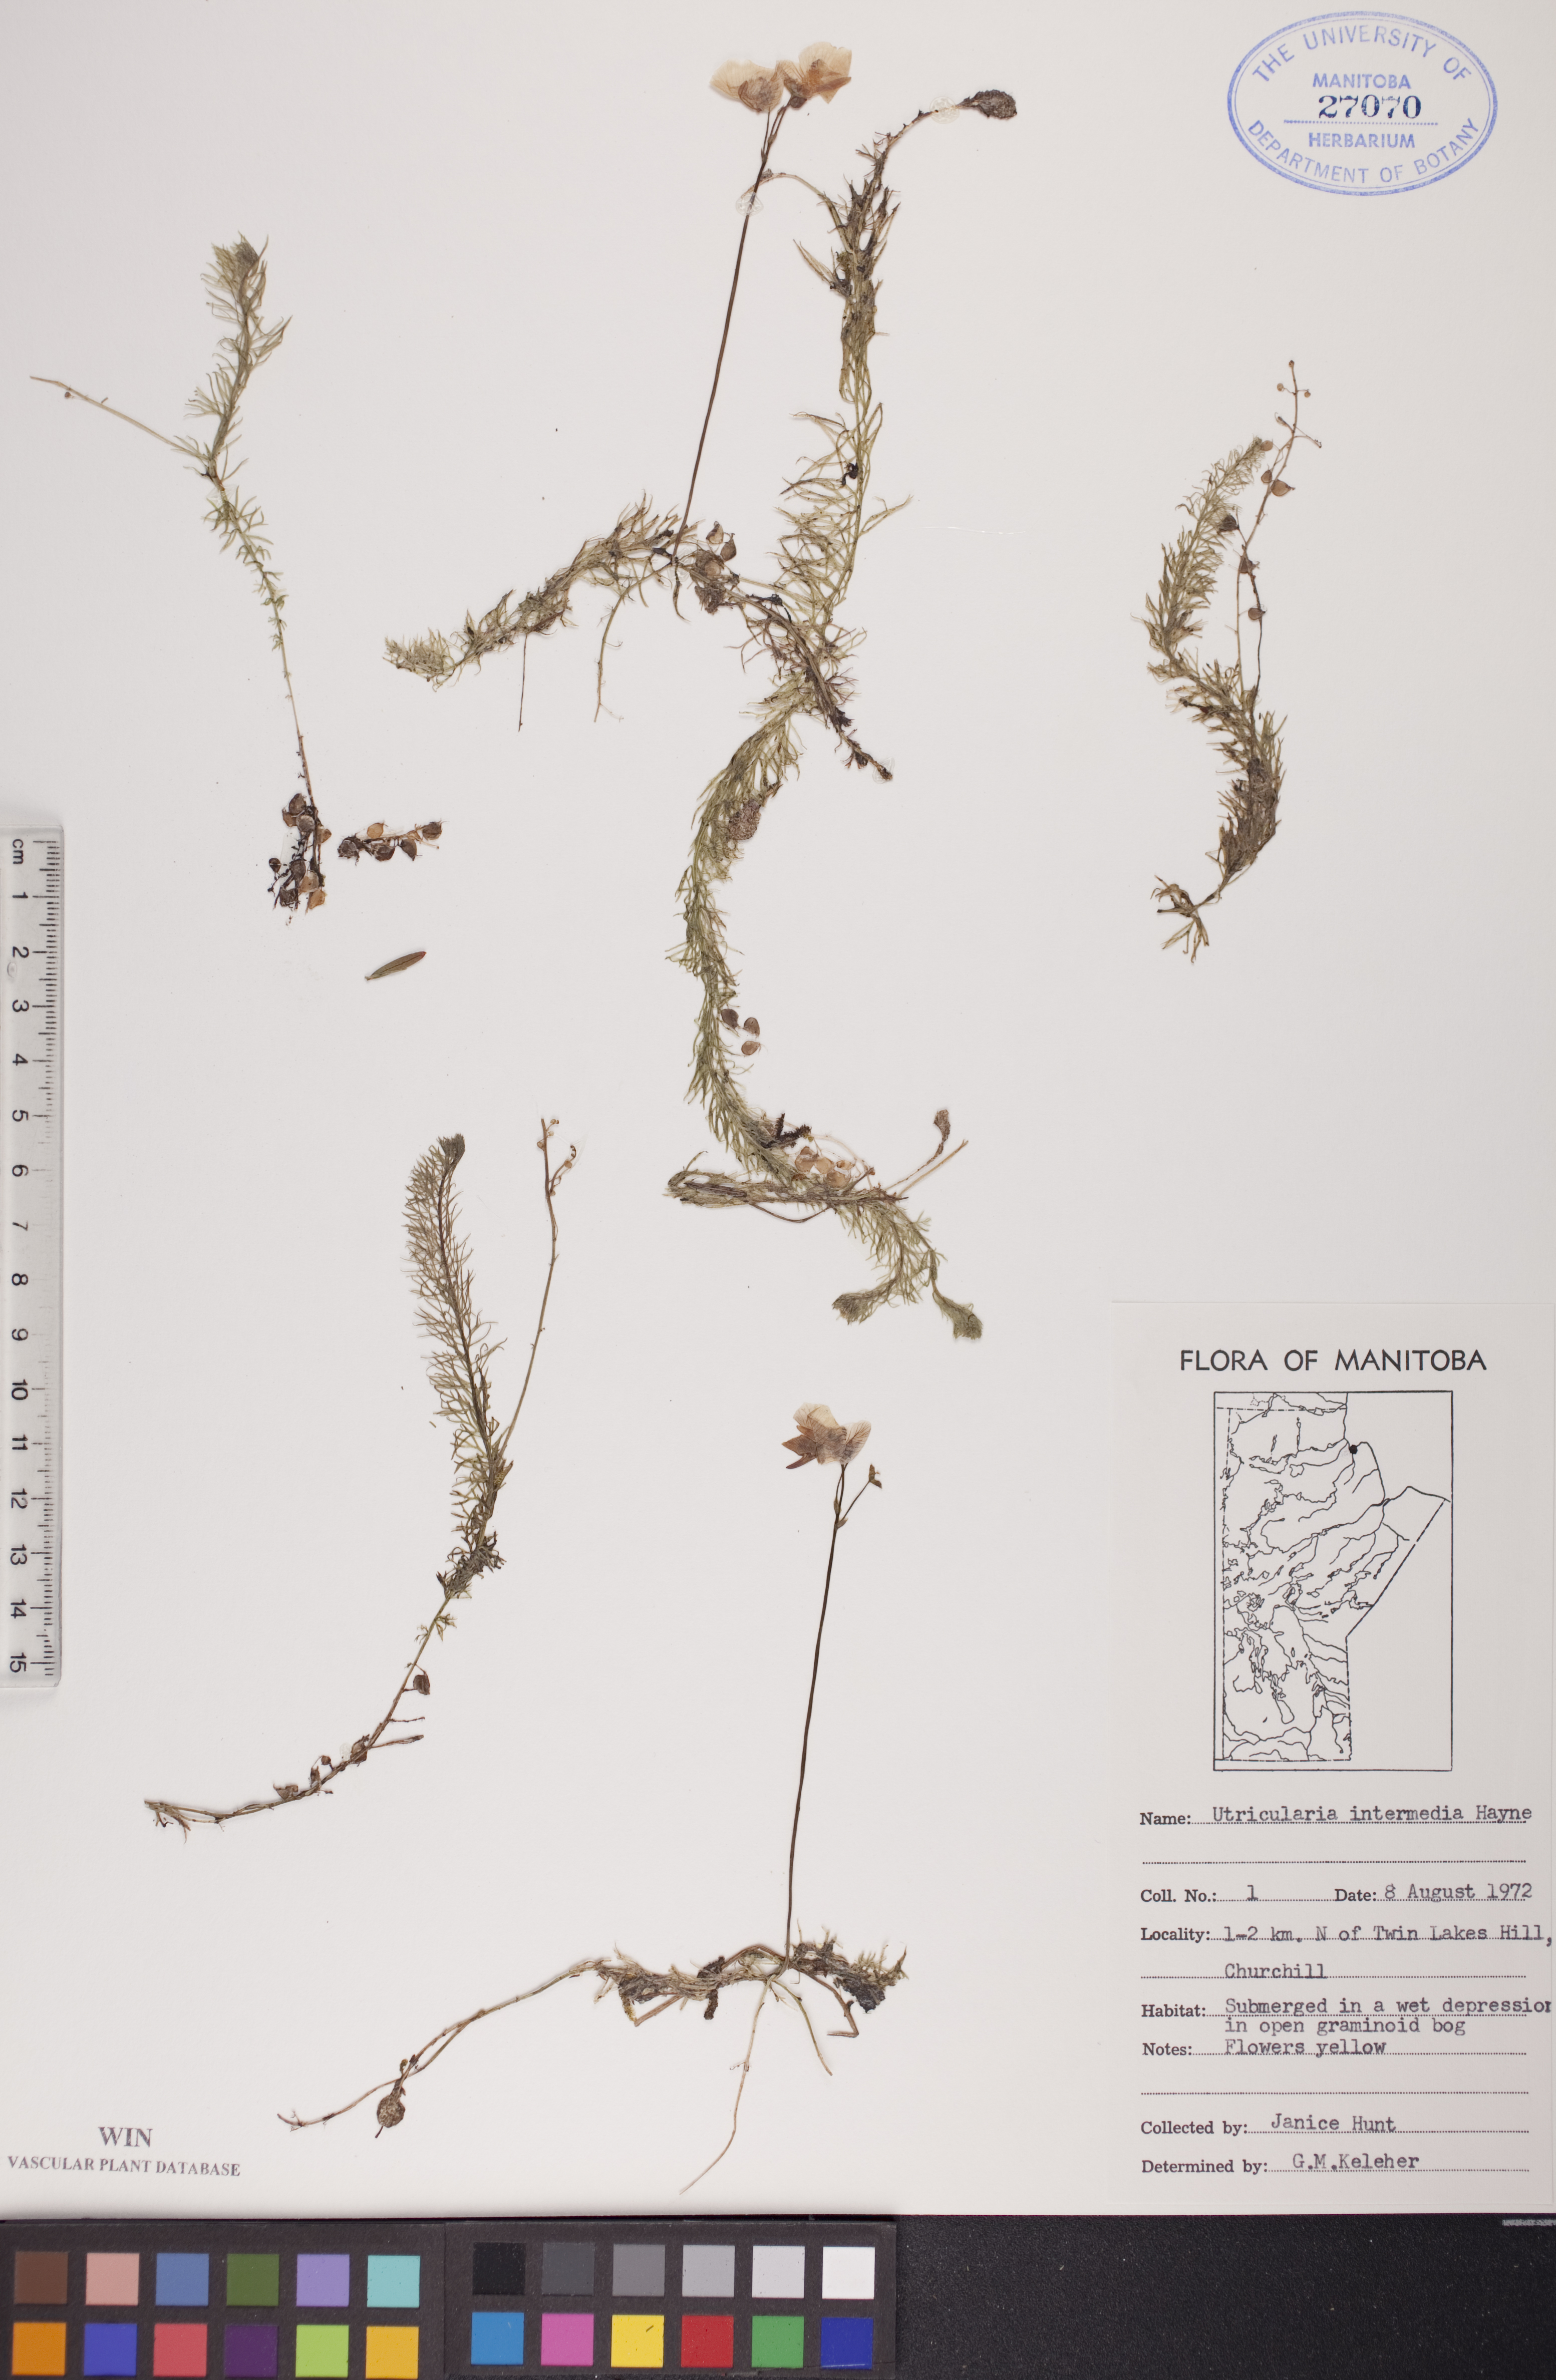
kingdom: Plantae
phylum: Tracheophyta
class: Magnoliopsida
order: Lamiales
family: Lentibulariaceae
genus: Utricularia
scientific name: Utricularia intermedia
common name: Intermediate bladderwort
